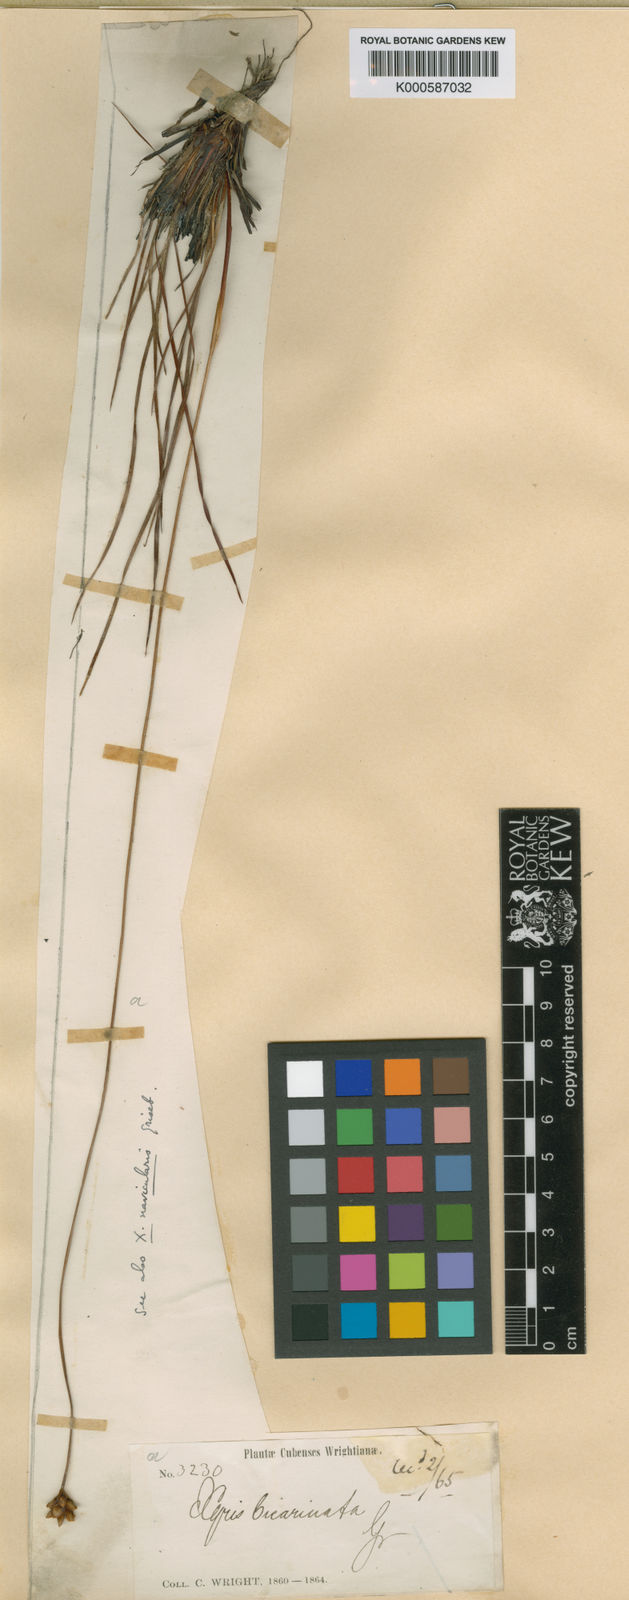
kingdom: Plantae
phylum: Tracheophyta
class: Liliopsida
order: Poales
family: Xyridaceae
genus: Xyris
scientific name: Xyris bicarinata
